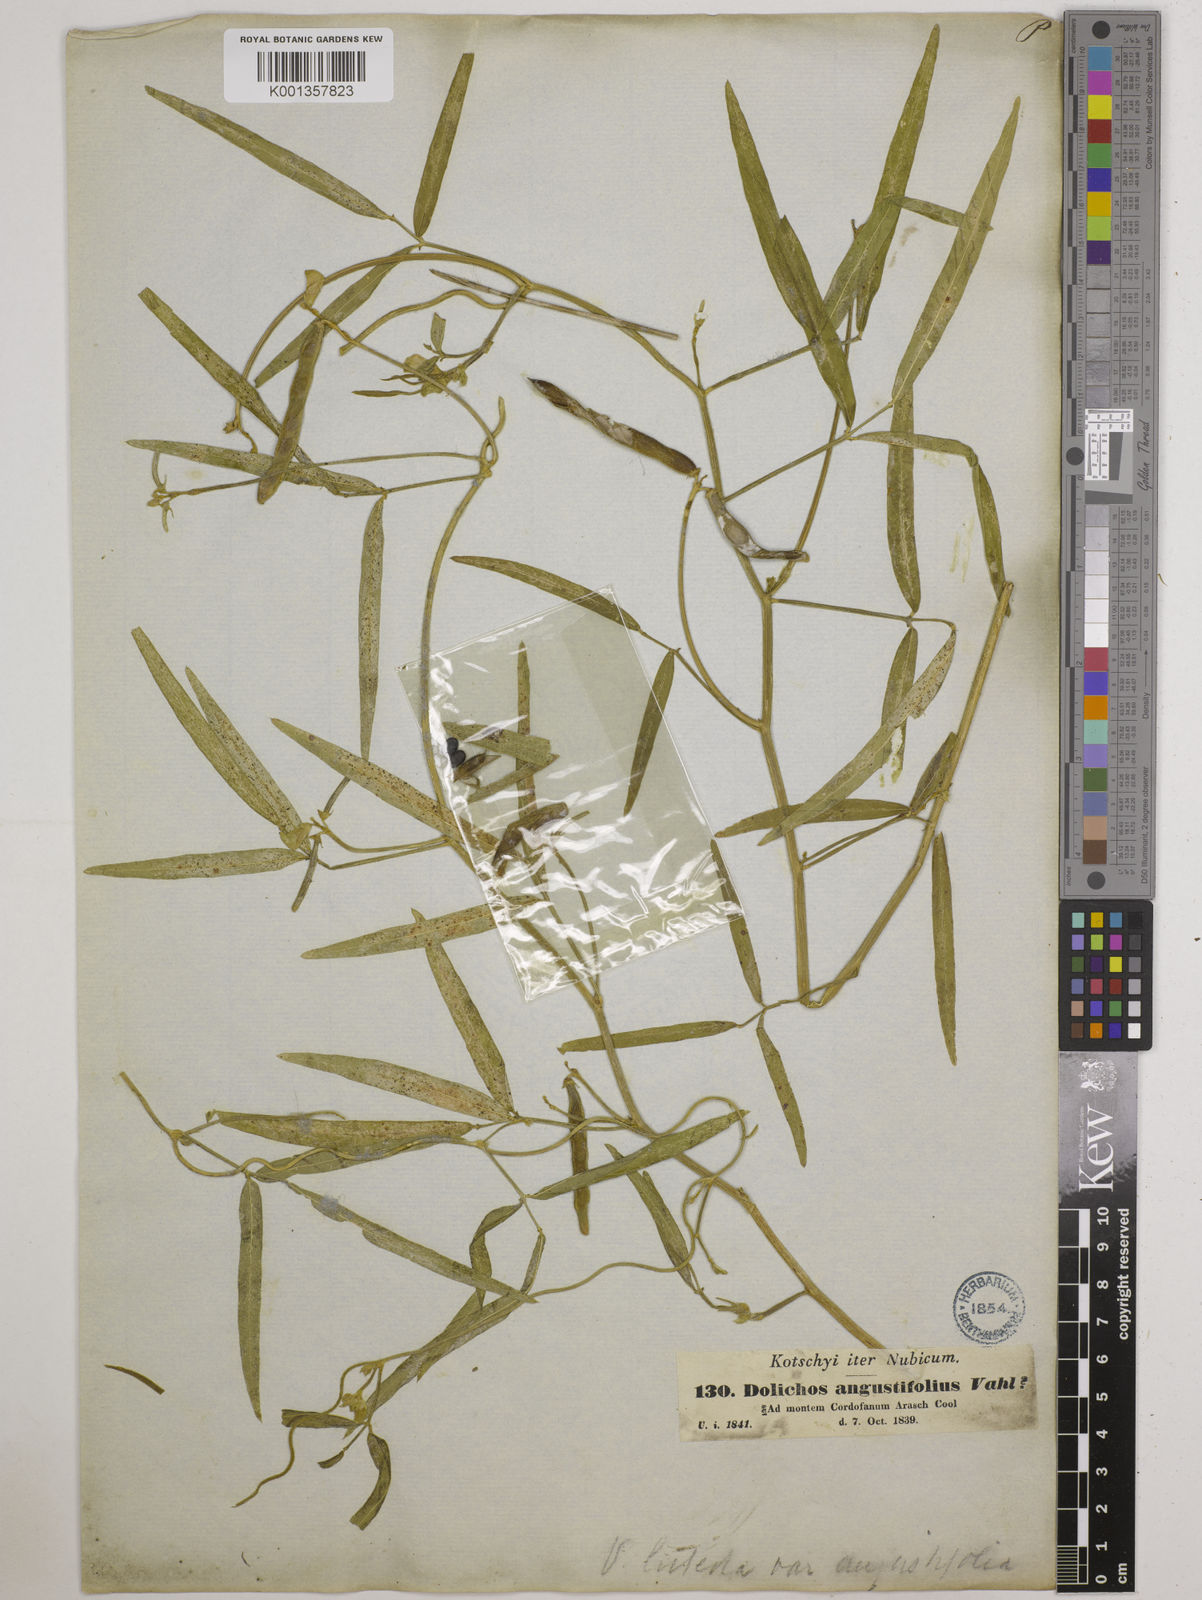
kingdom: Plantae
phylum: Tracheophyta
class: Magnoliopsida
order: Fabales
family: Fabaceae
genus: Vigna
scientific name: Vigna
